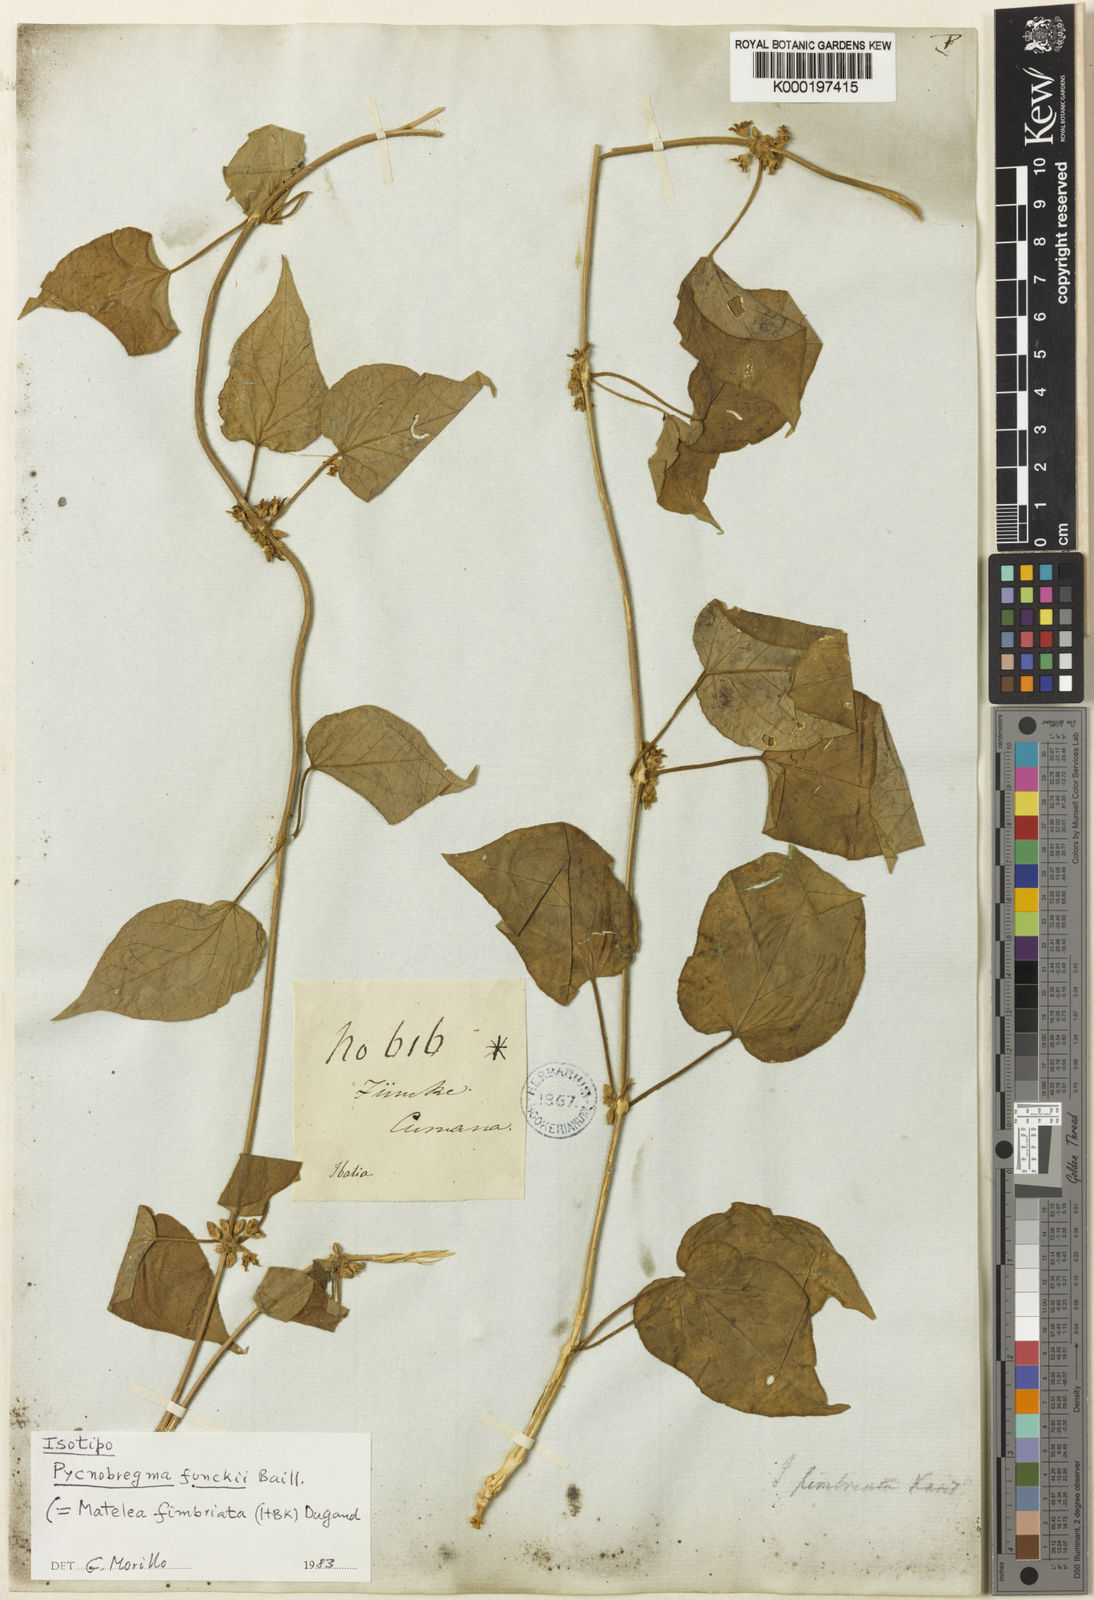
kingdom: Plantae
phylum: Tracheophyta
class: Magnoliopsida
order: Gentianales
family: Apocynaceae
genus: Ibatia
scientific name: Ibatia cumanensis
